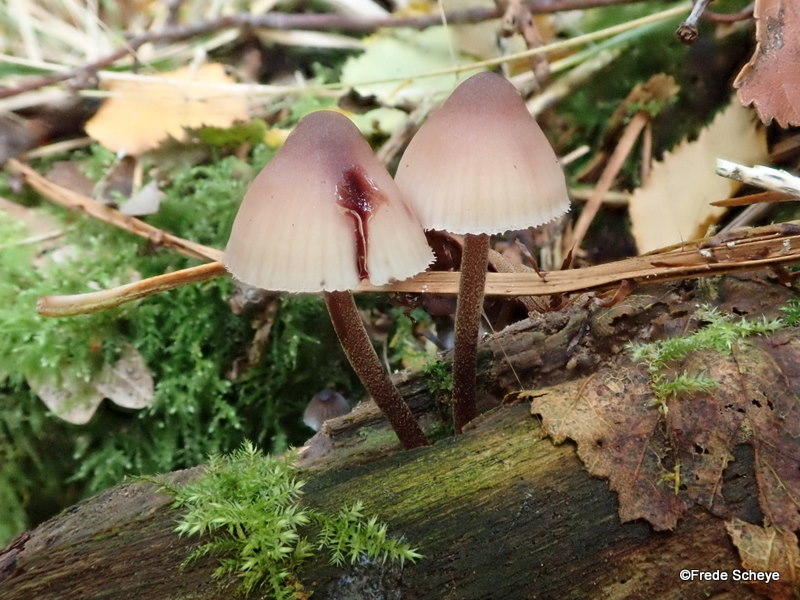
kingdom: Fungi
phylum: Basidiomycota
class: Agaricomycetes
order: Agaricales
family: Mycenaceae
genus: Mycena
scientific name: Mycena haematopus
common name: blødende huesvamp
